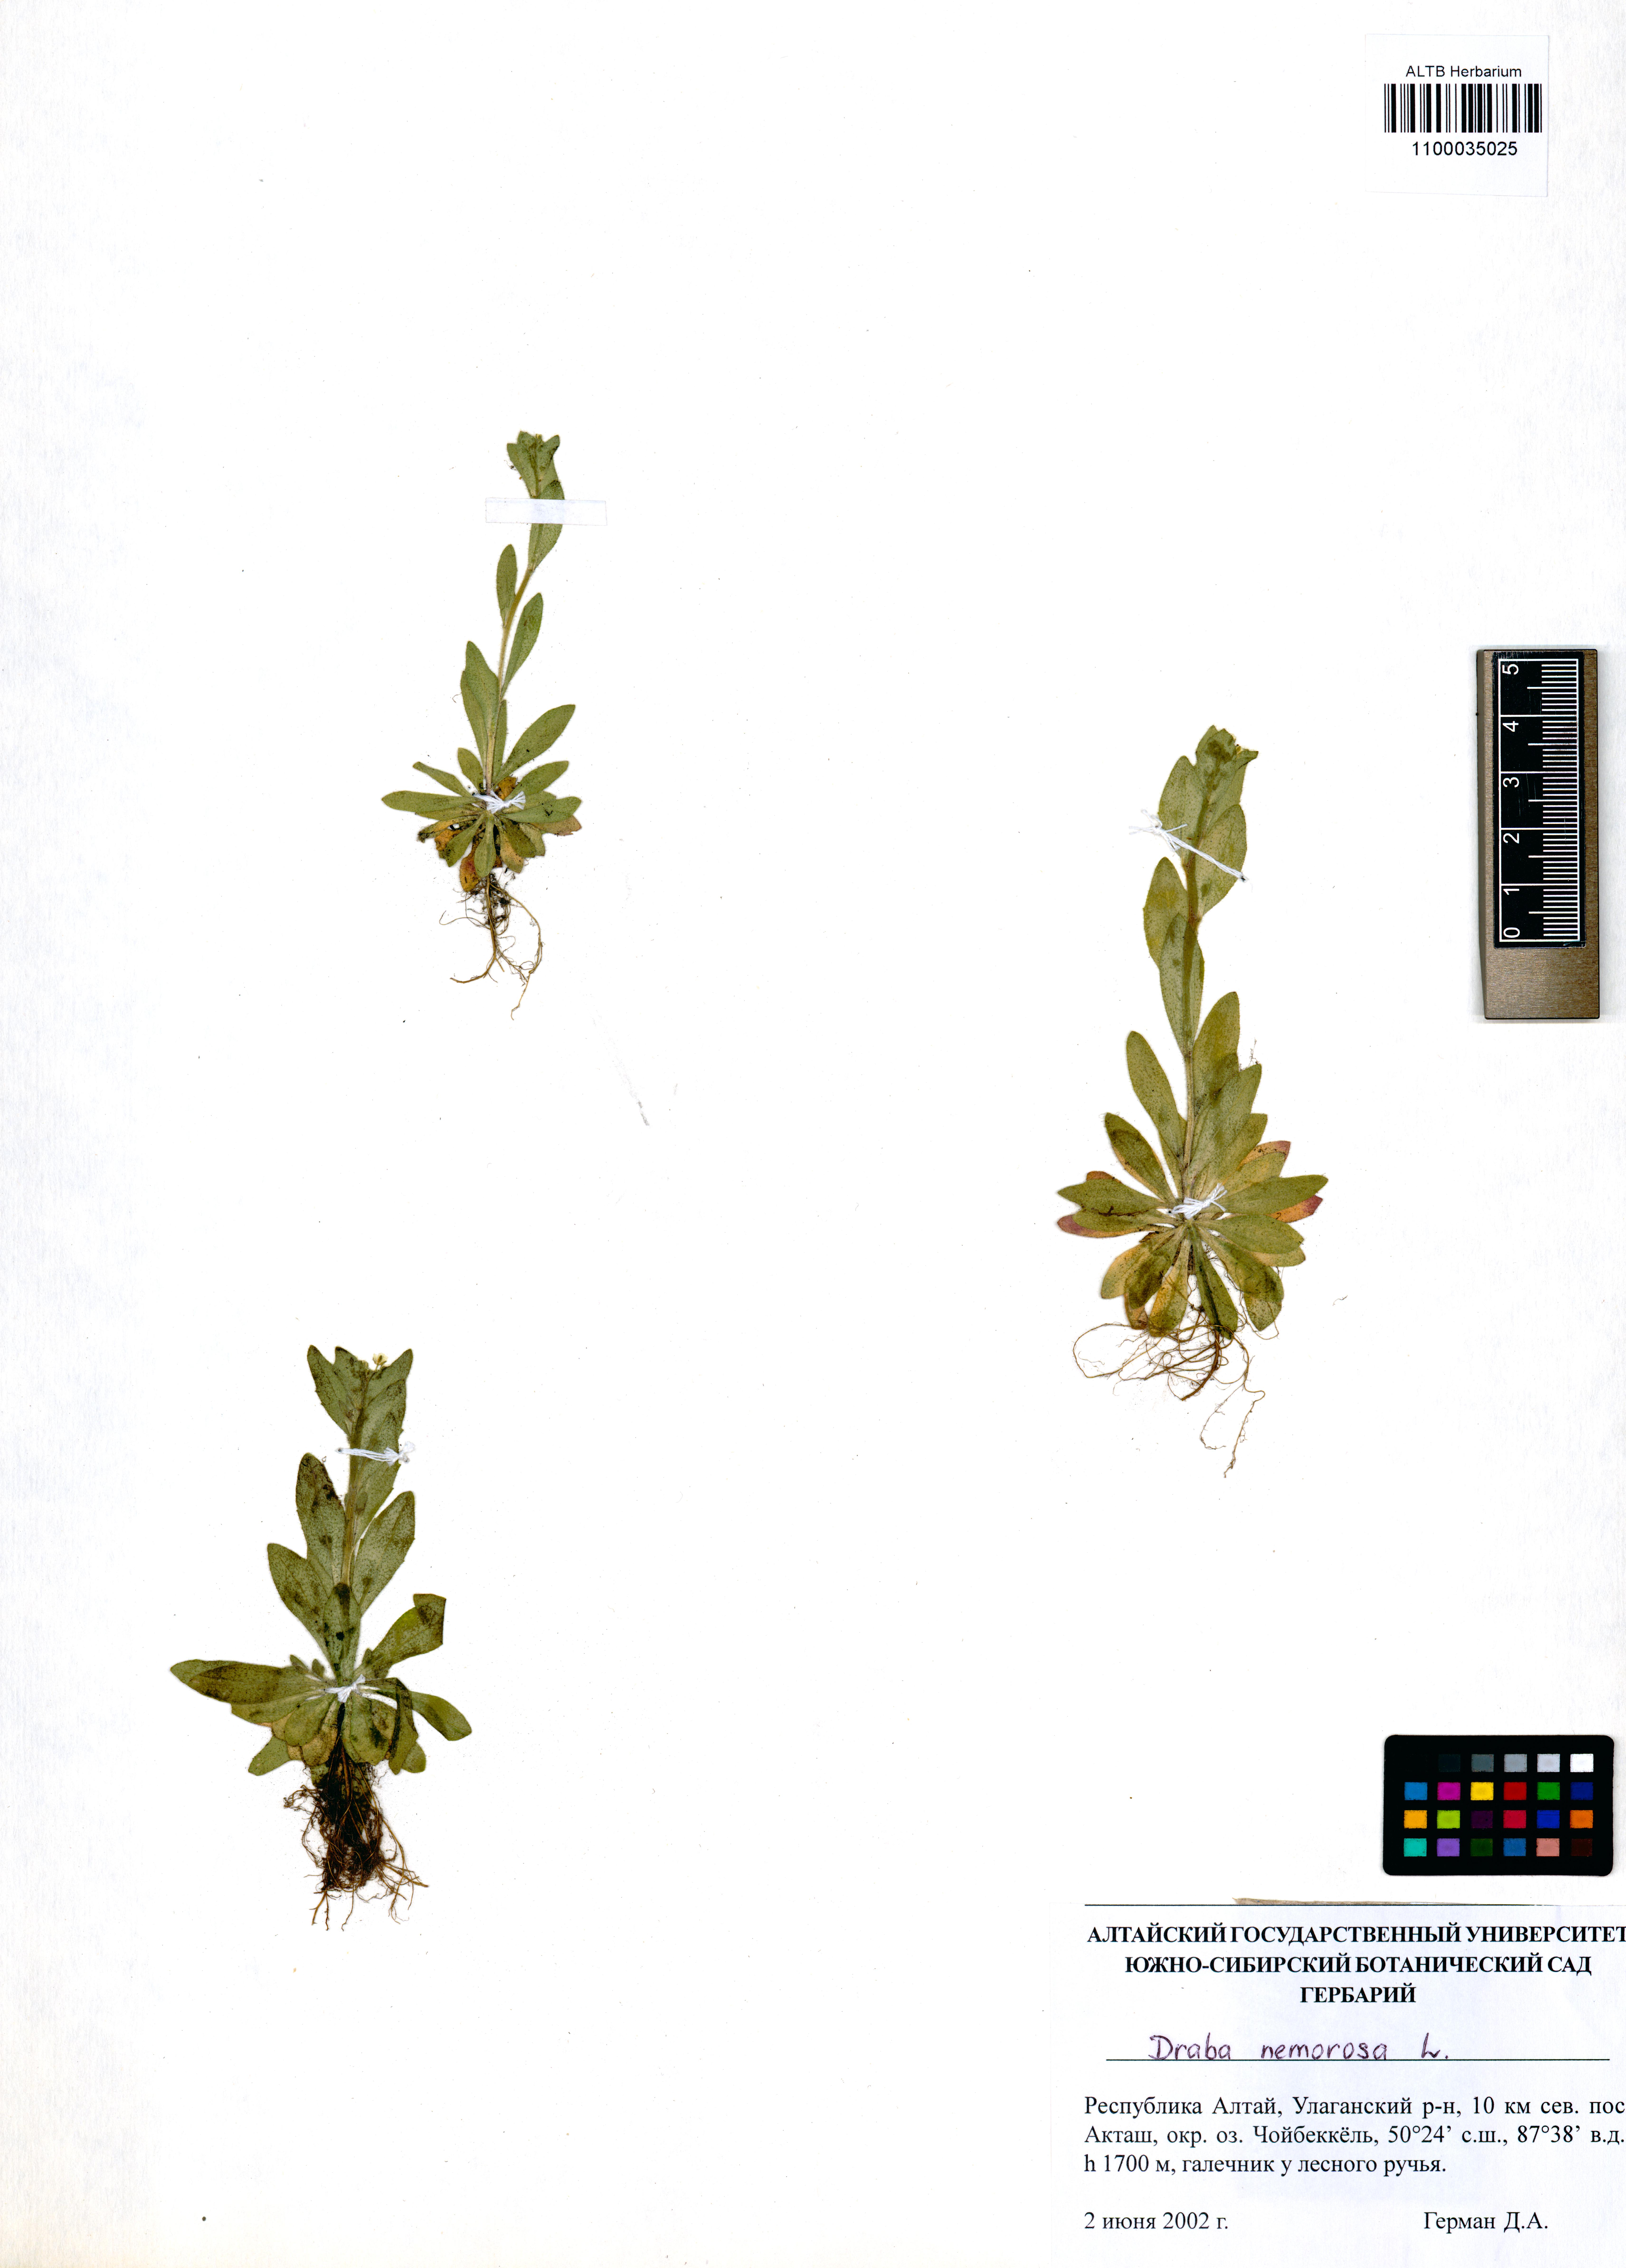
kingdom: Plantae
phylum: Tracheophyta
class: Magnoliopsida
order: Brassicales
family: Brassicaceae
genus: Draba
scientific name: Draba nemorosa
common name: Wood whitlow-grass
